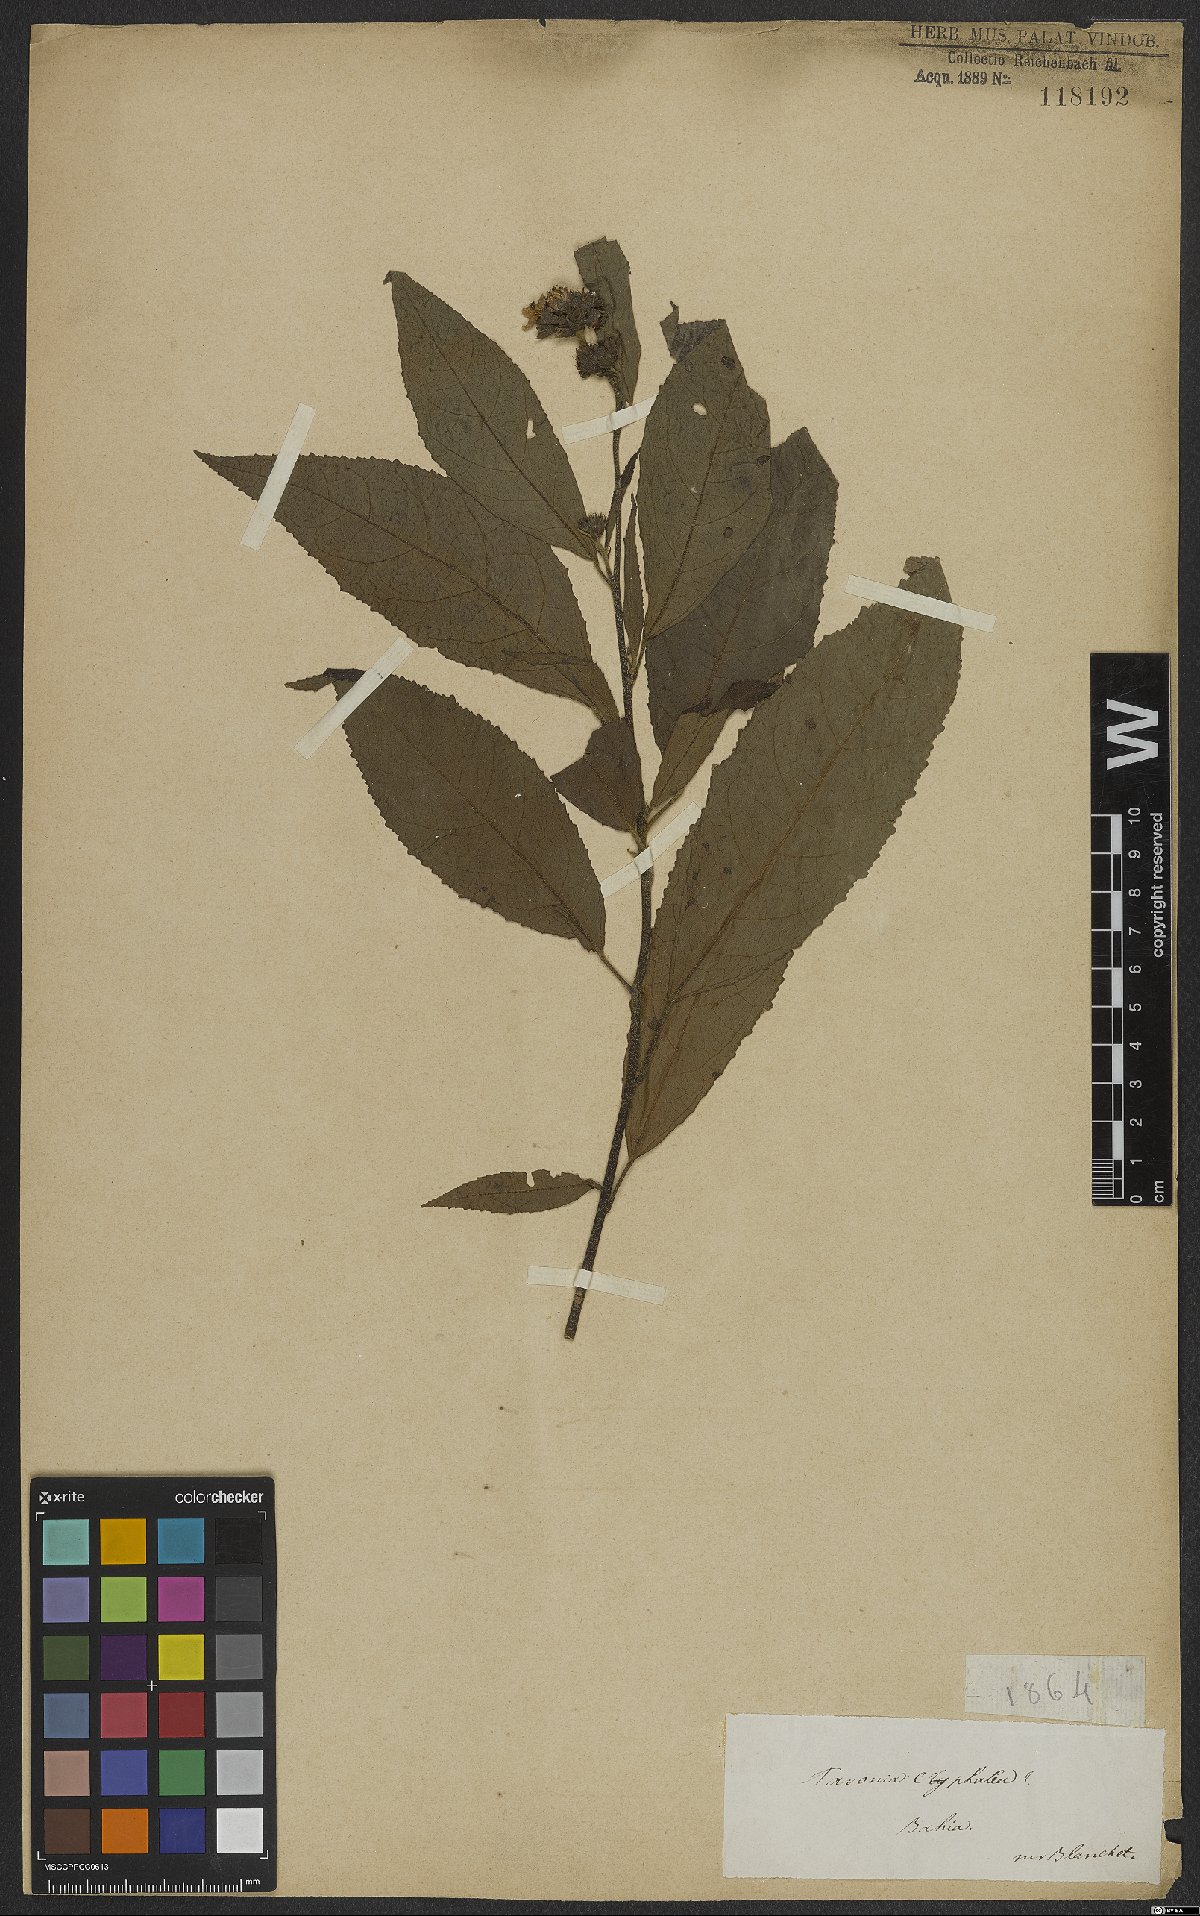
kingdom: Plantae
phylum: Tracheophyta
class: Magnoliopsida
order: Malvales
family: Malvaceae
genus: Pavonia
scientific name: Pavonia fruticosa
